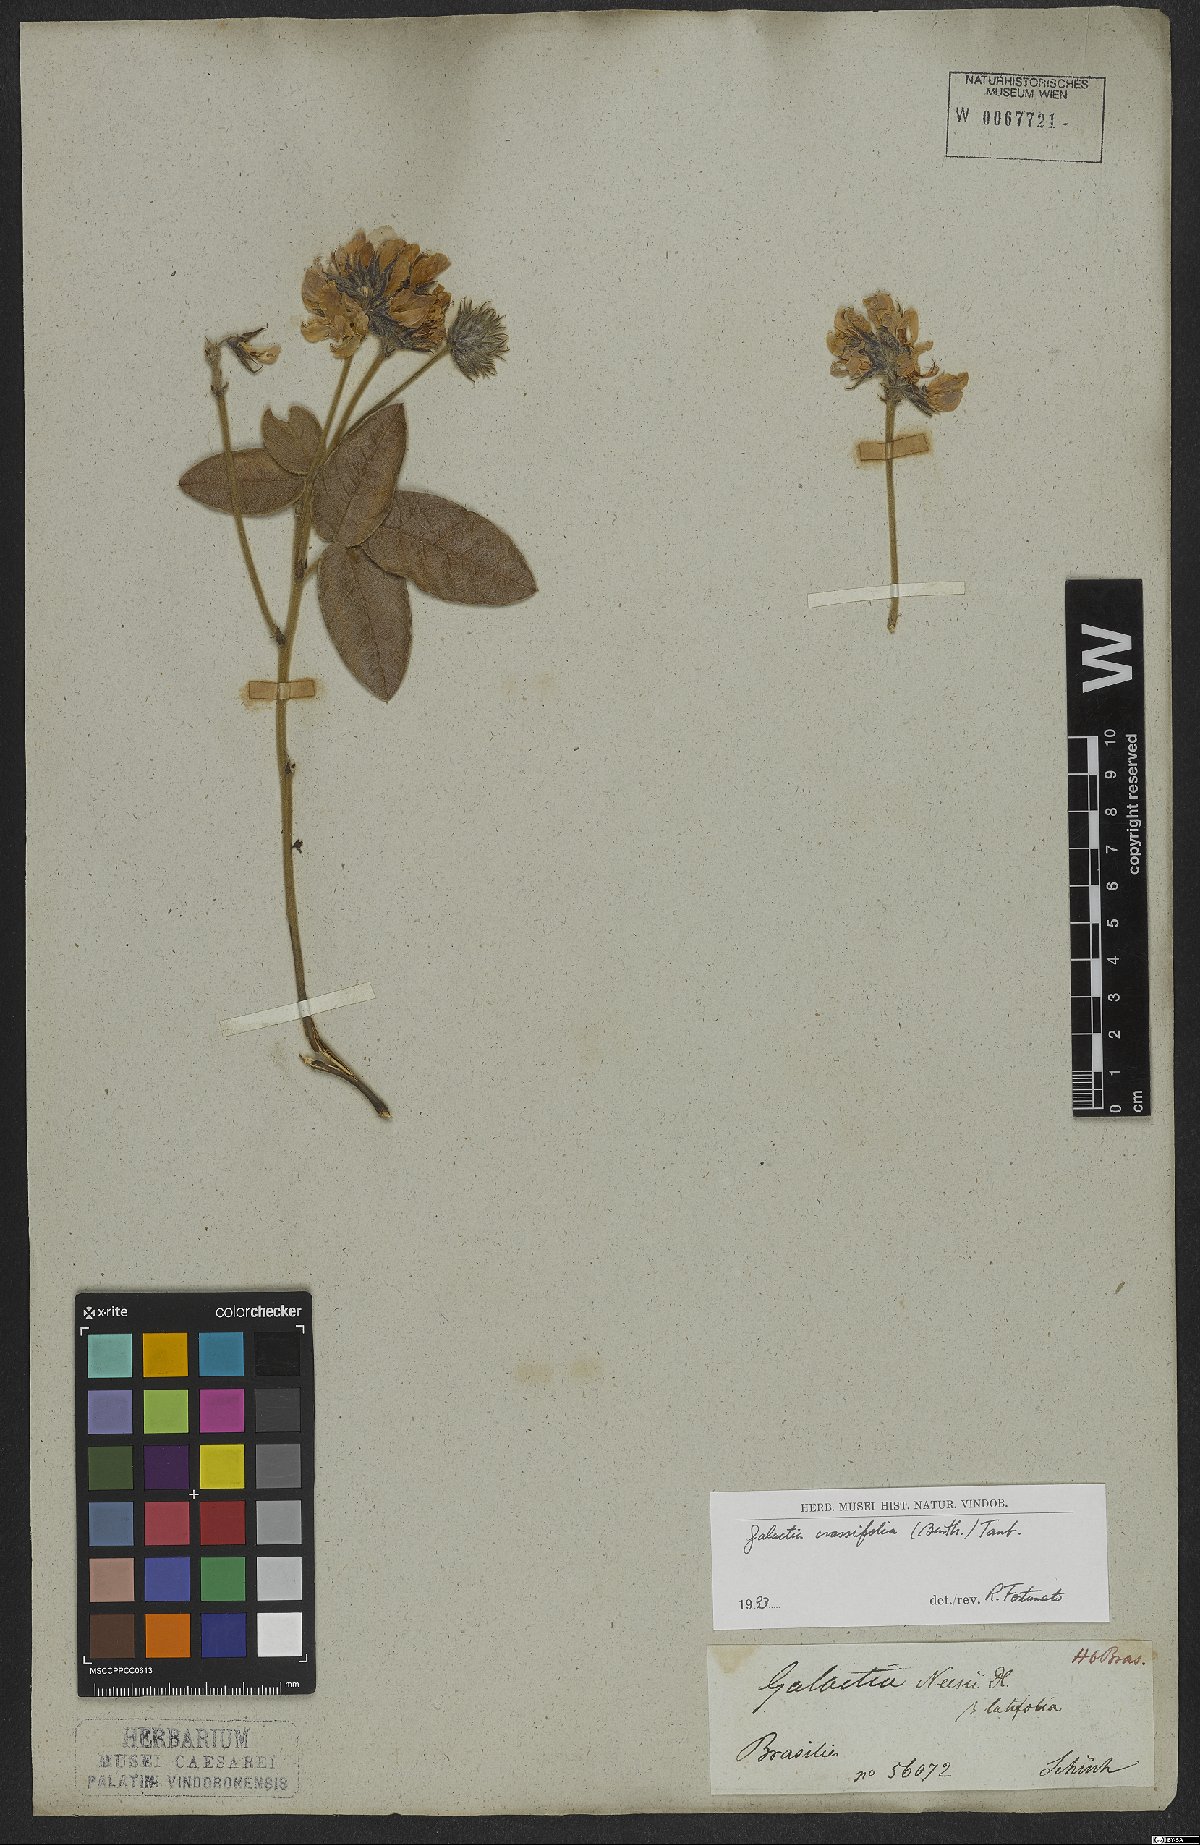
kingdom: Plantae
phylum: Tracheophyta
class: Magnoliopsida
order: Fabales
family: Fabaceae
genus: Betencourtia
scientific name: Betencourtia crassifolia
